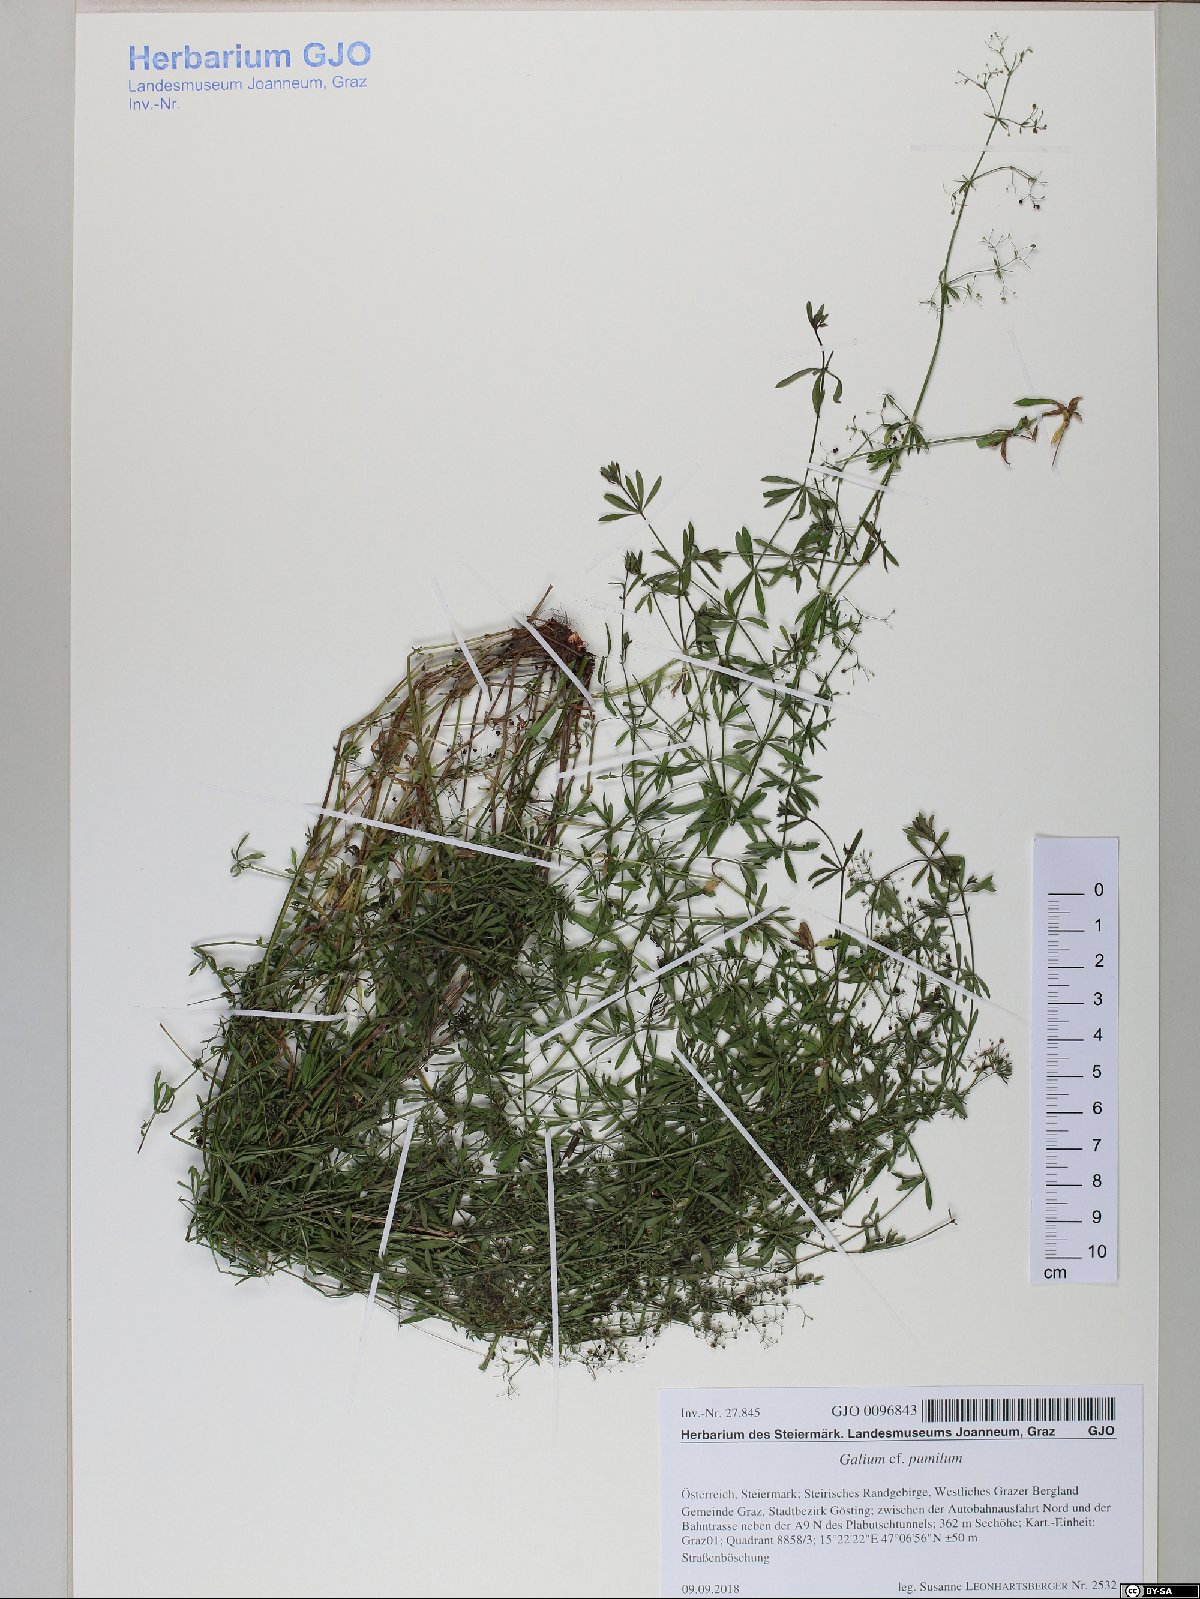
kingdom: Plantae
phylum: Tracheophyta
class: Magnoliopsida
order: Gentianales
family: Rubiaceae
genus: Galium
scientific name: Galium pumilum
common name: Slender bedstraw
